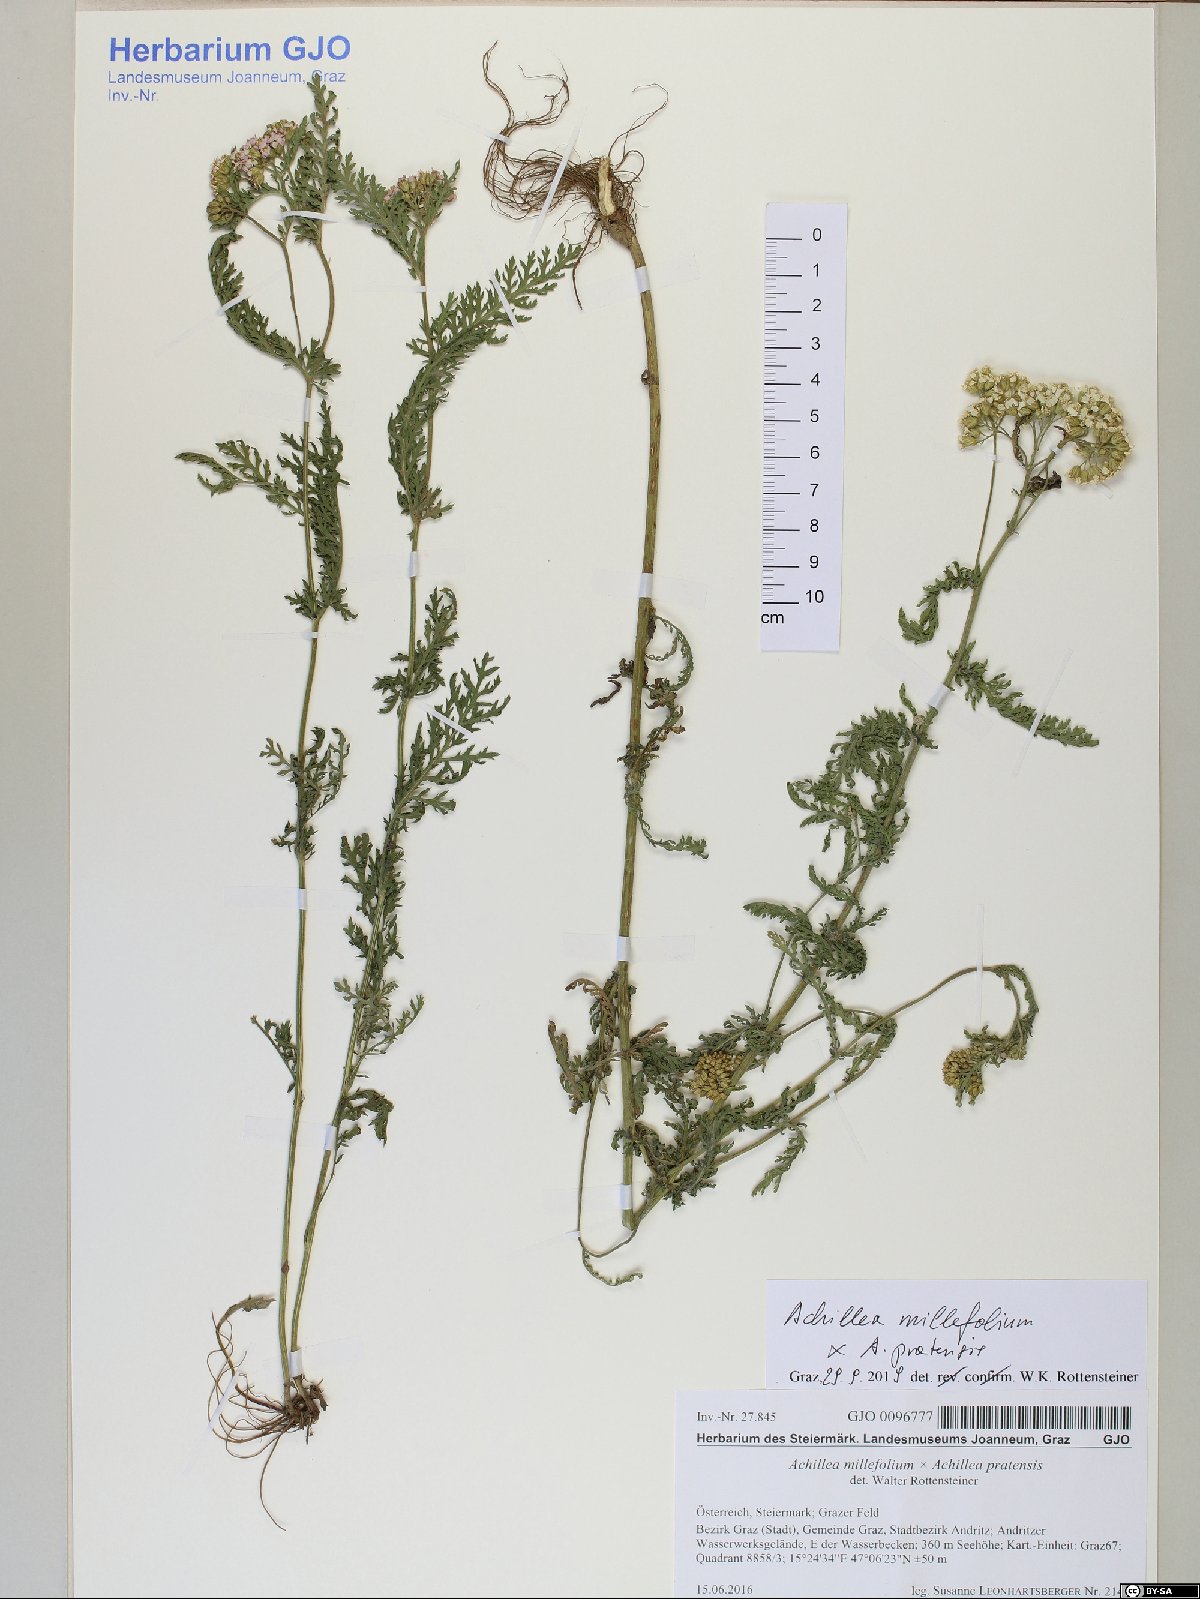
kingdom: Plantae
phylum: Tracheophyta
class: Magnoliopsida
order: Asterales
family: Asteraceae
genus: Achillea
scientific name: Achillea millefolium
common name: Yarrow
